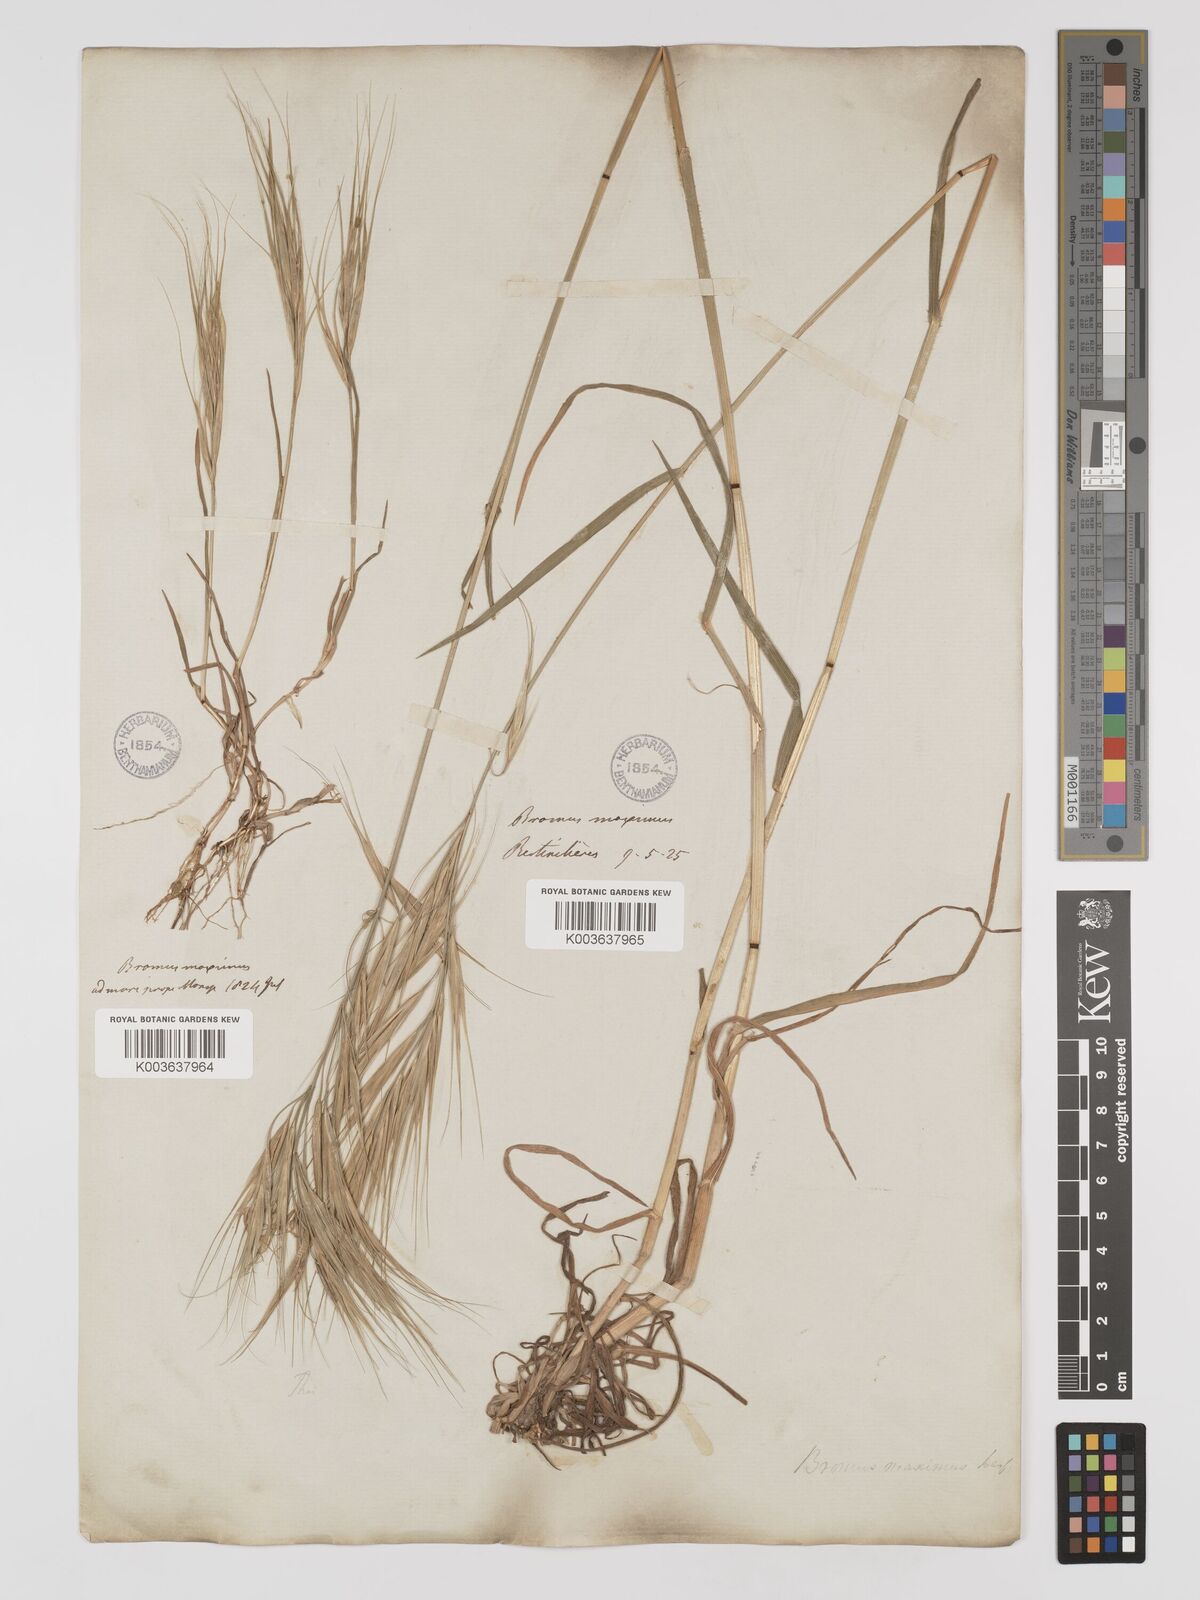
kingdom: Plantae
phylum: Tracheophyta
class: Liliopsida
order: Poales
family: Poaceae
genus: Bromus
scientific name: Bromus
